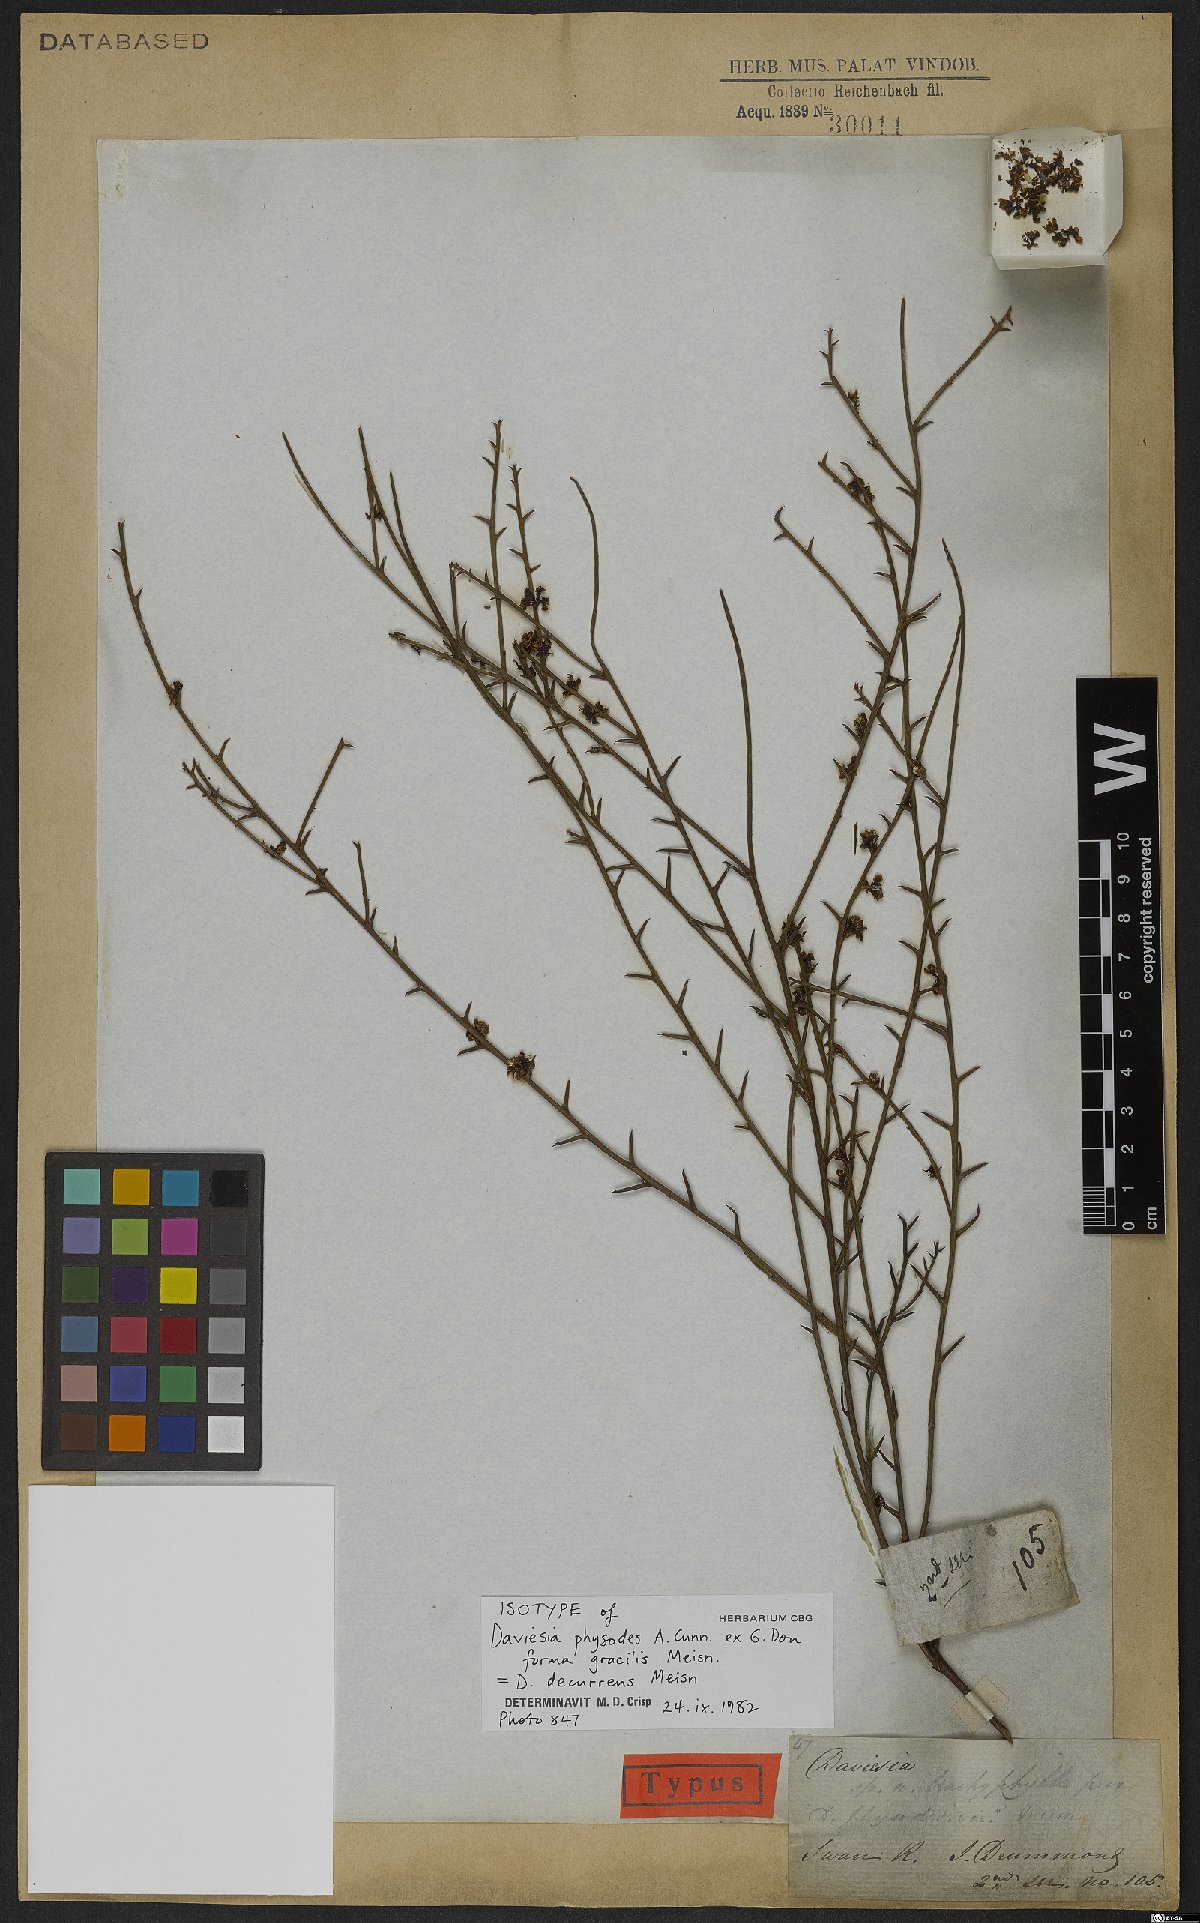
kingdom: Plantae
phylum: Tracheophyta
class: Magnoliopsida
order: Fabales
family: Fabaceae
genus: Daviesia
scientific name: Daviesia decurrens
